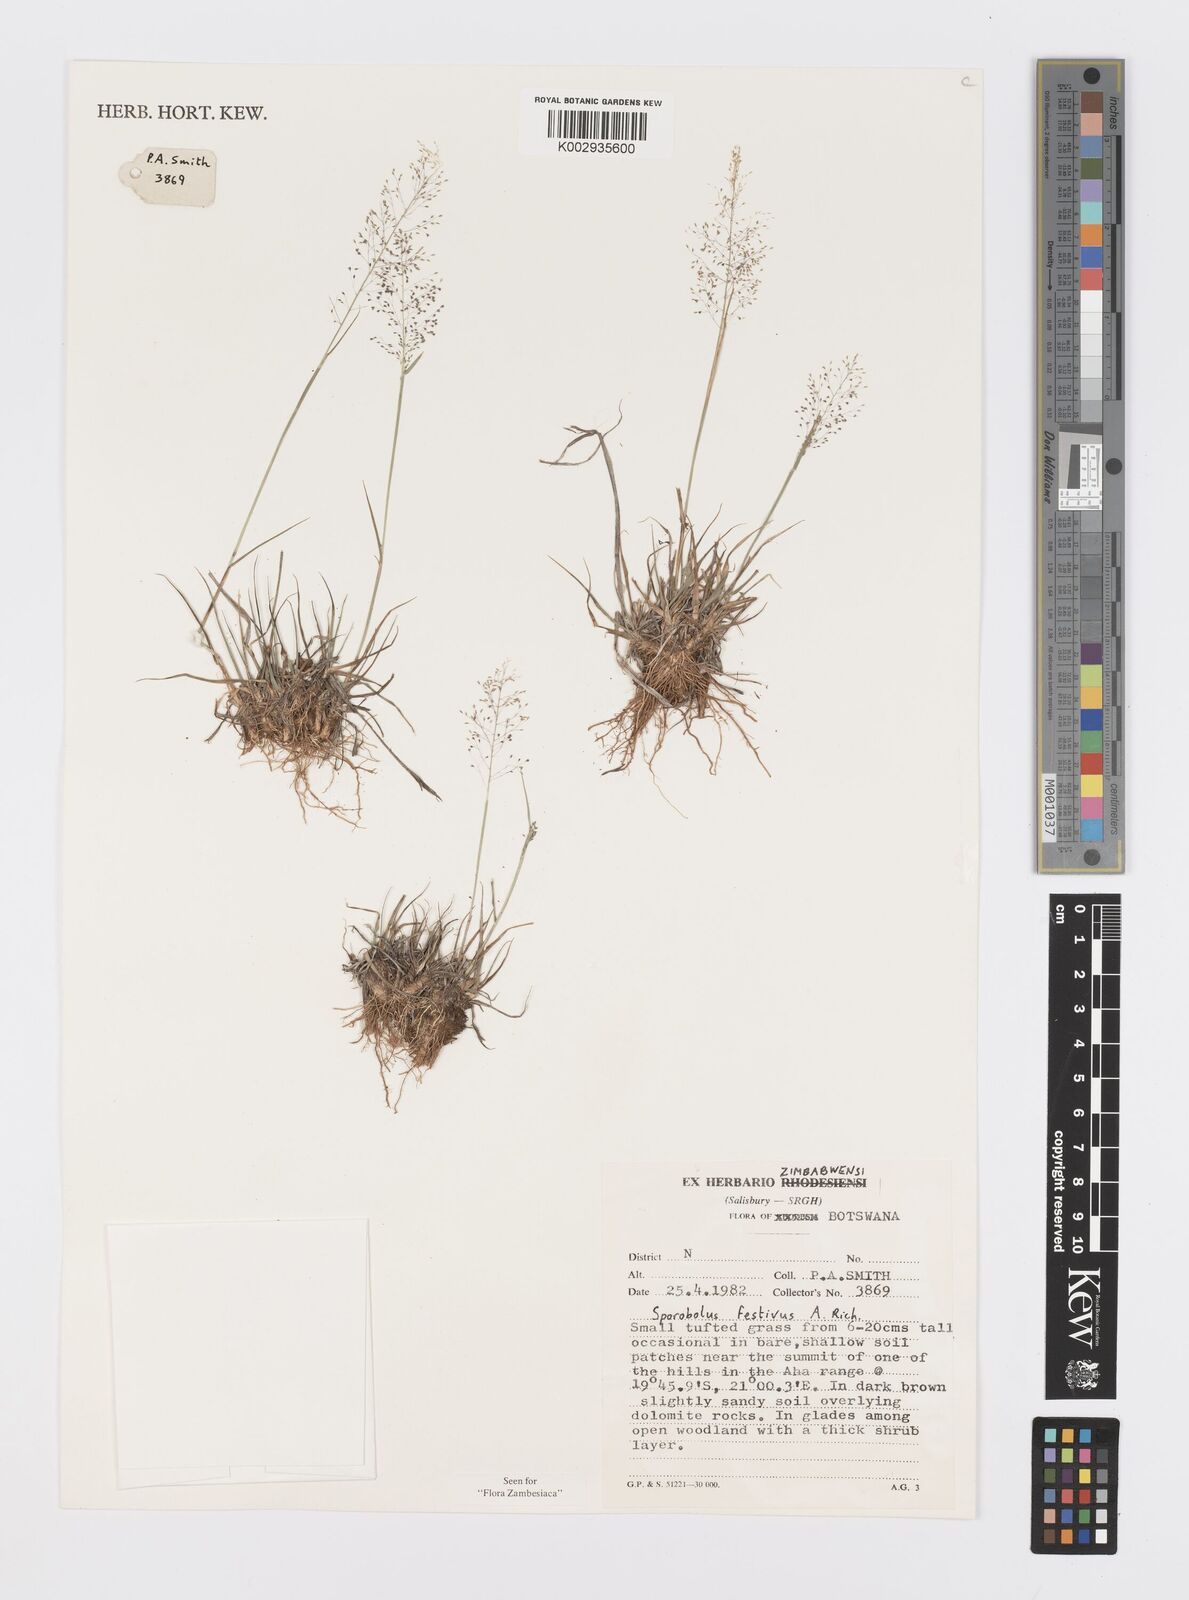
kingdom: Plantae
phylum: Tracheophyta
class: Liliopsida
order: Poales
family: Poaceae
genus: Sporobolus
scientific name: Sporobolus festivus
